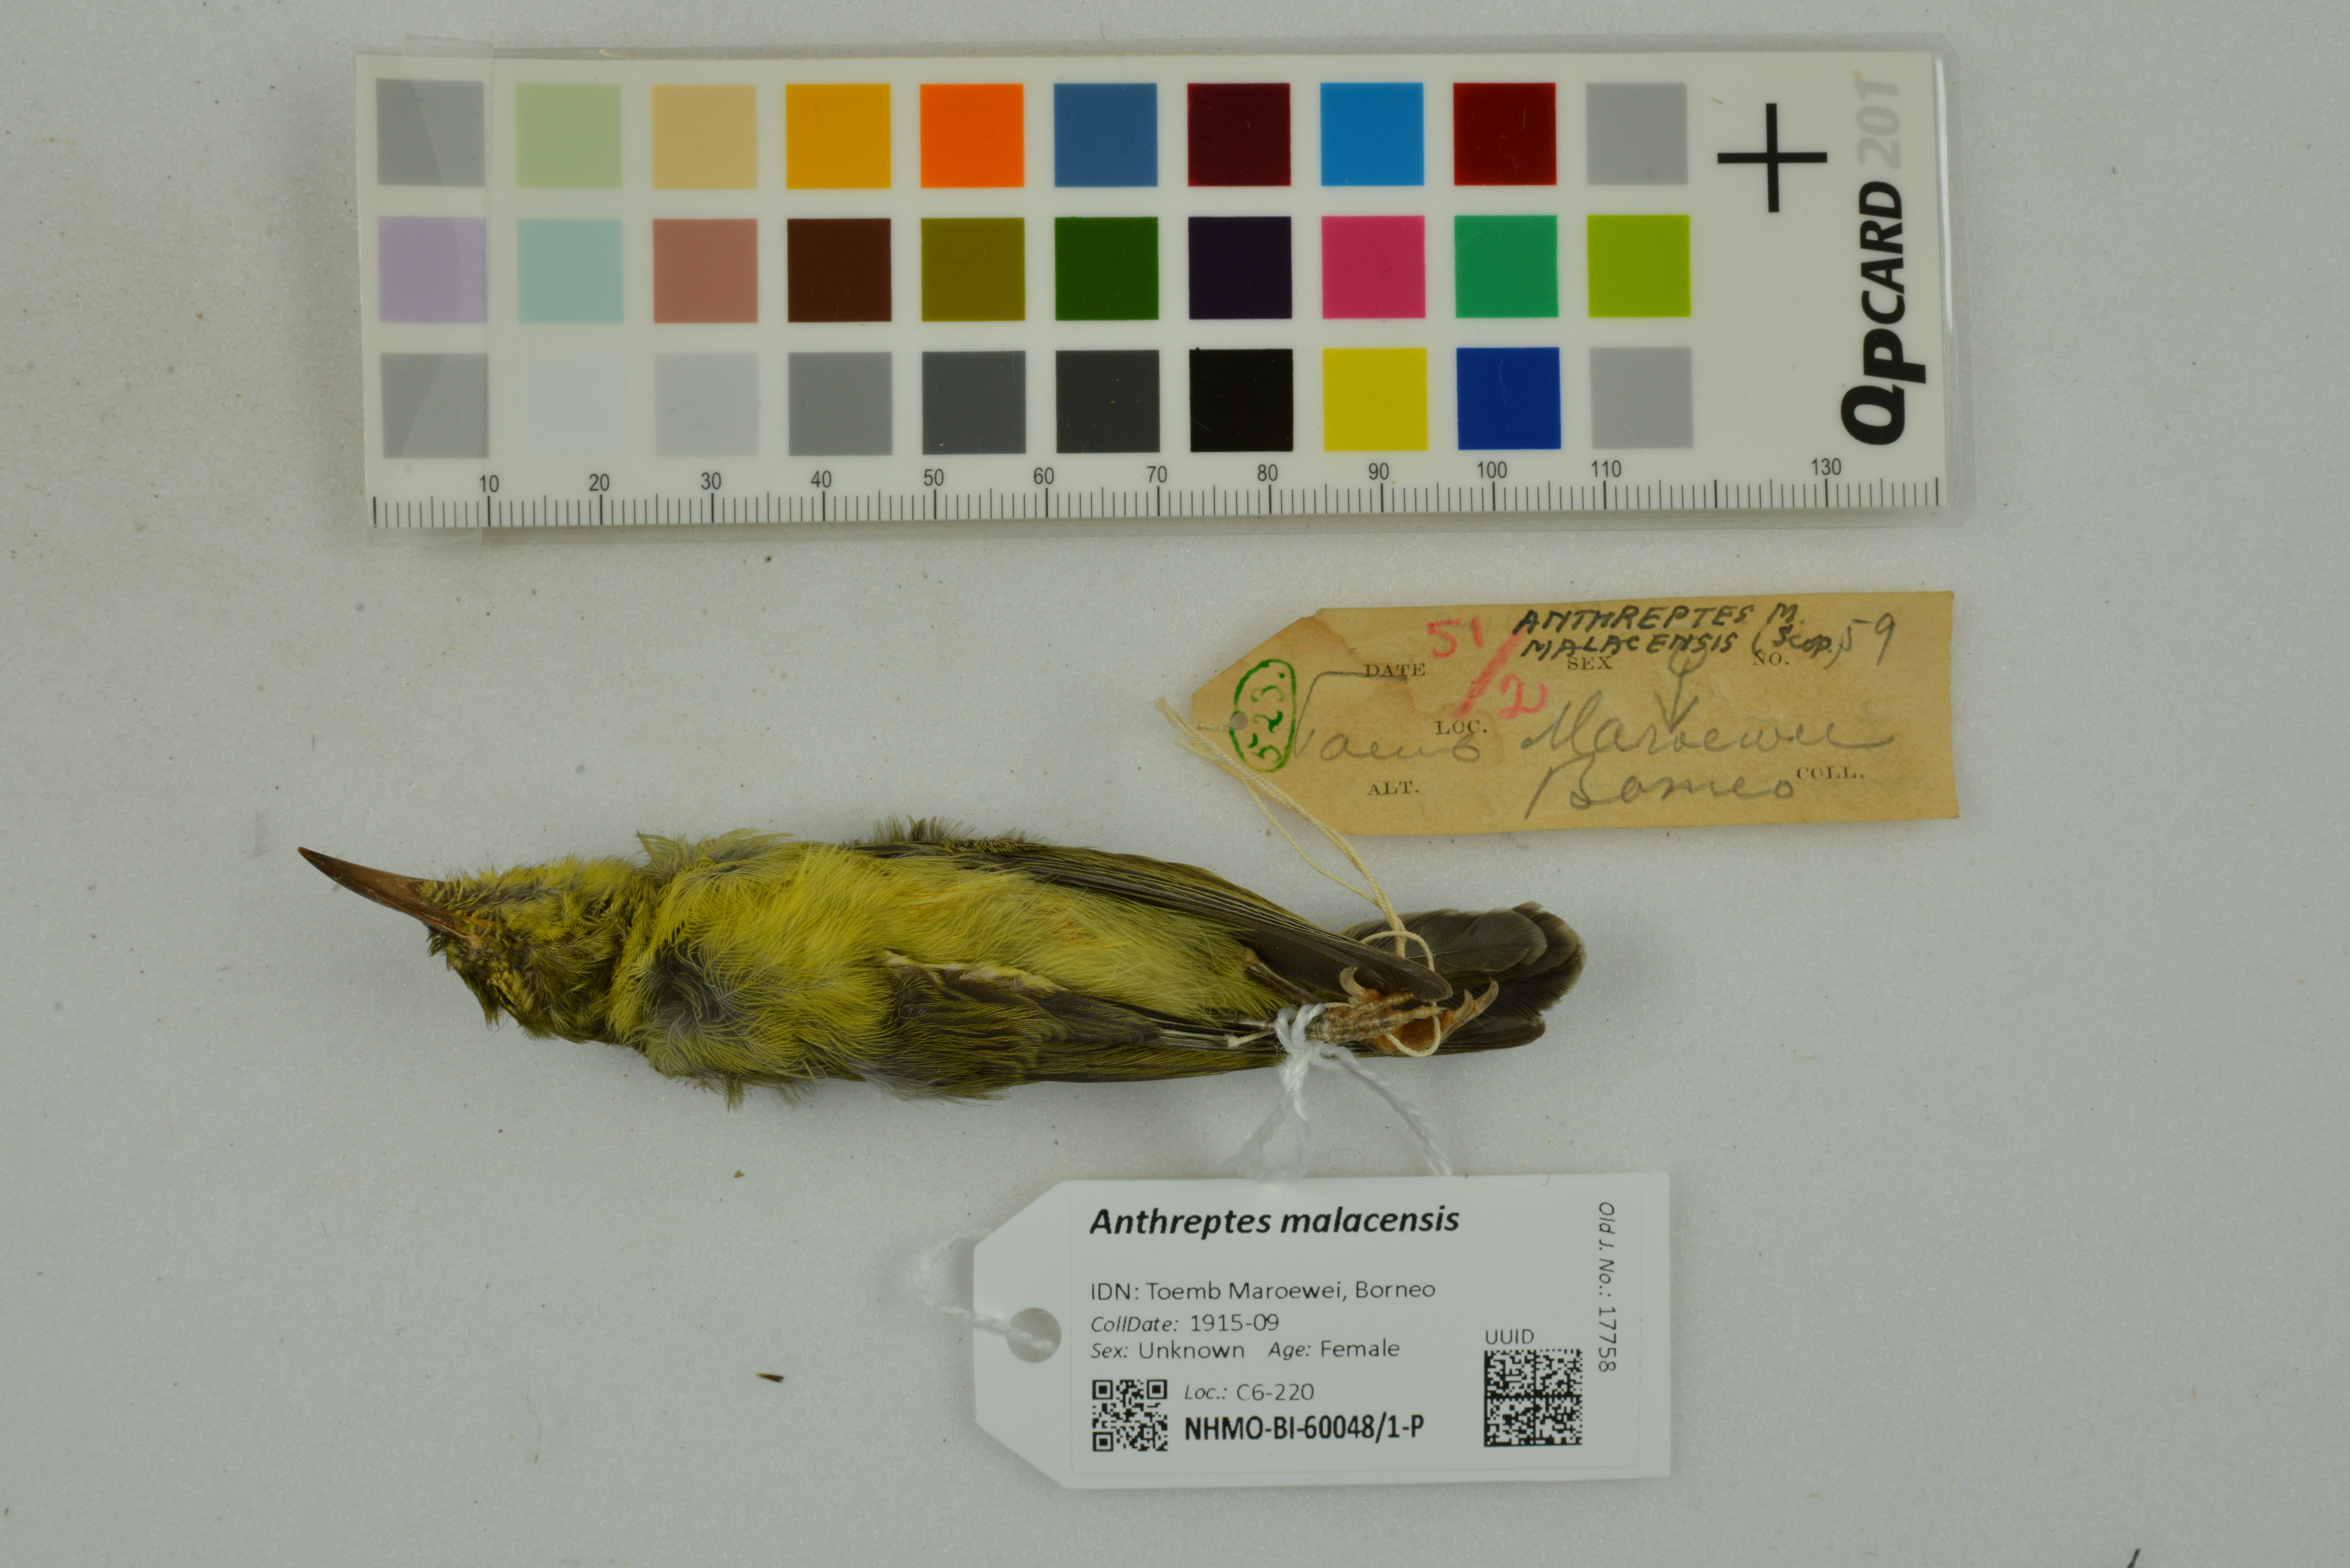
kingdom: Animalia
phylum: Chordata
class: Aves
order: Passeriformes
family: Nectariniidae
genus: Anthreptes
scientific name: Anthreptes malacensis
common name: Brown-throated sunbird
